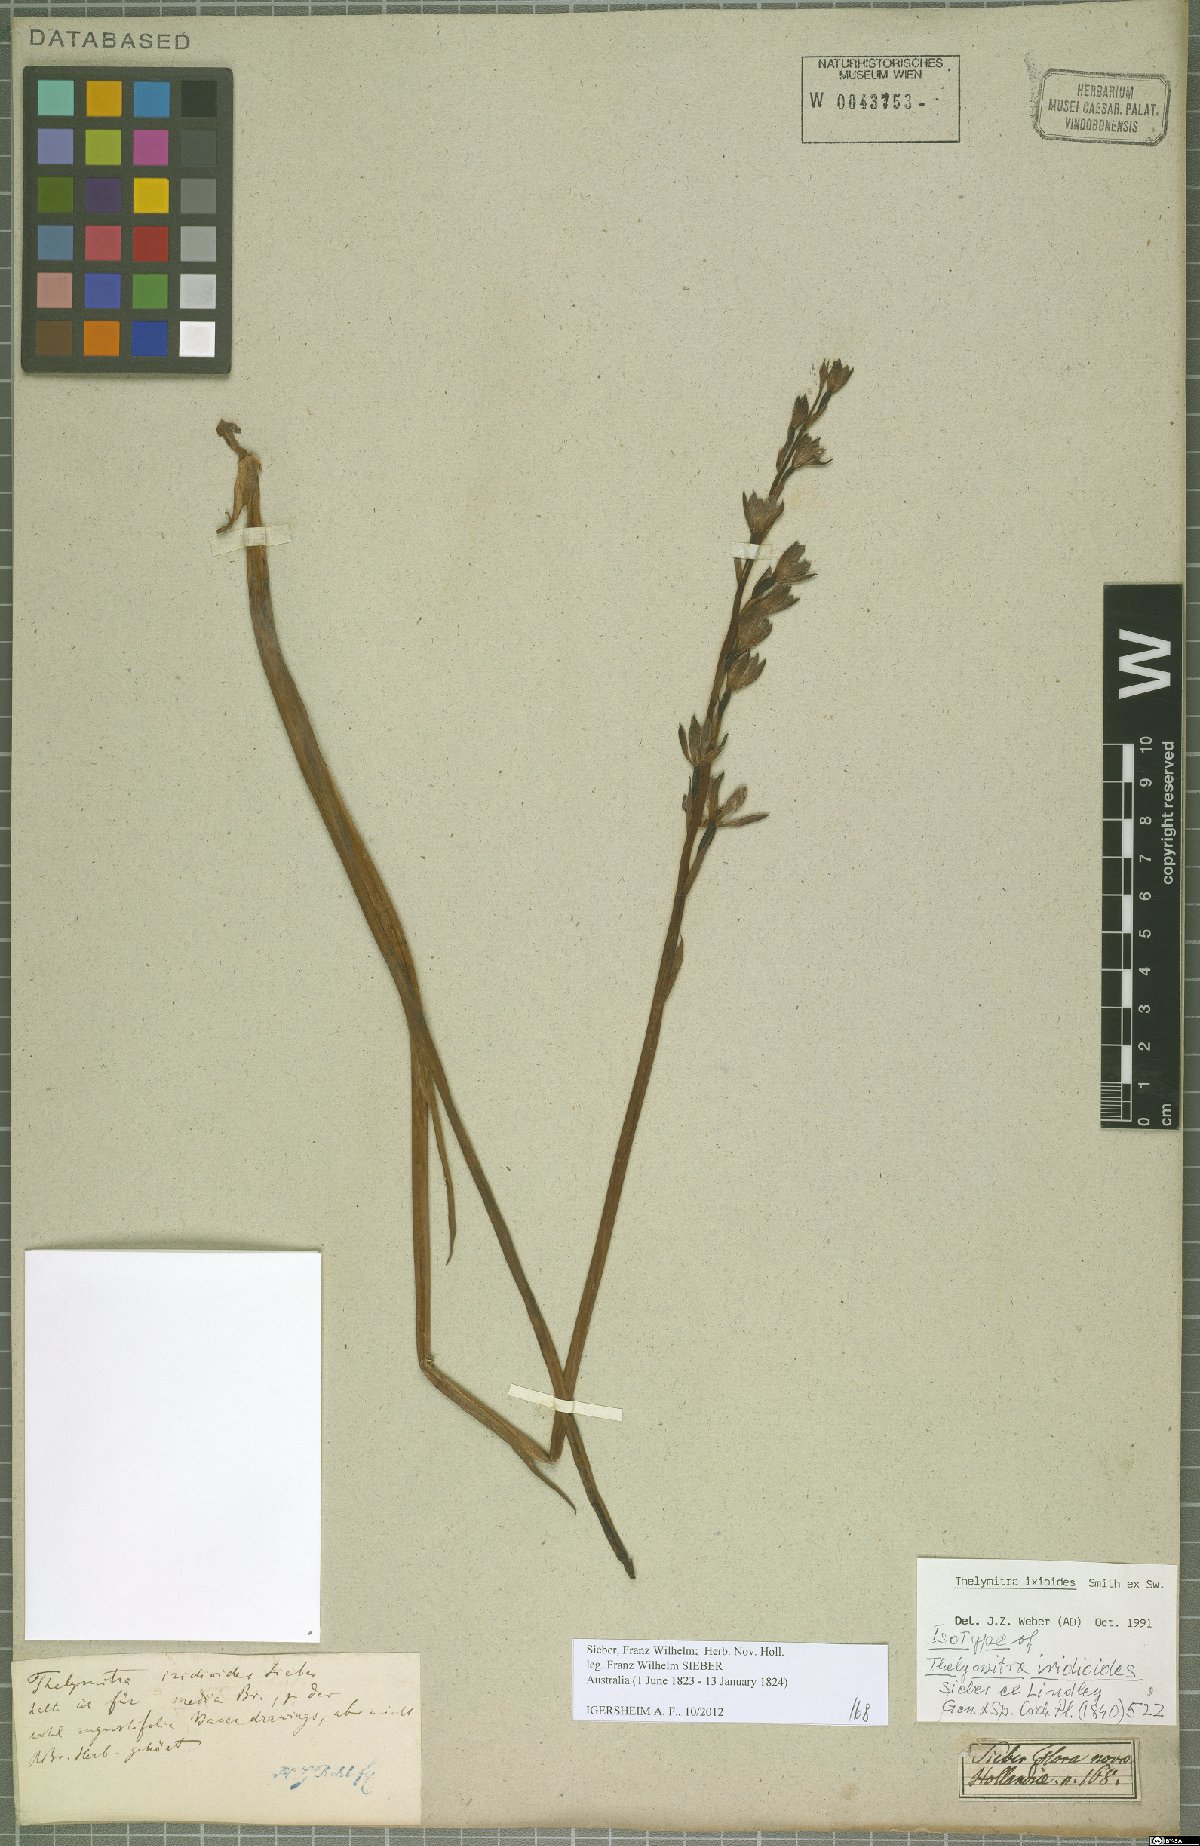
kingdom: Plantae
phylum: Tracheophyta
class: Liliopsida
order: Asparagales
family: Orchidaceae
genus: Thelymitra
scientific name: Thelymitra ixioides
